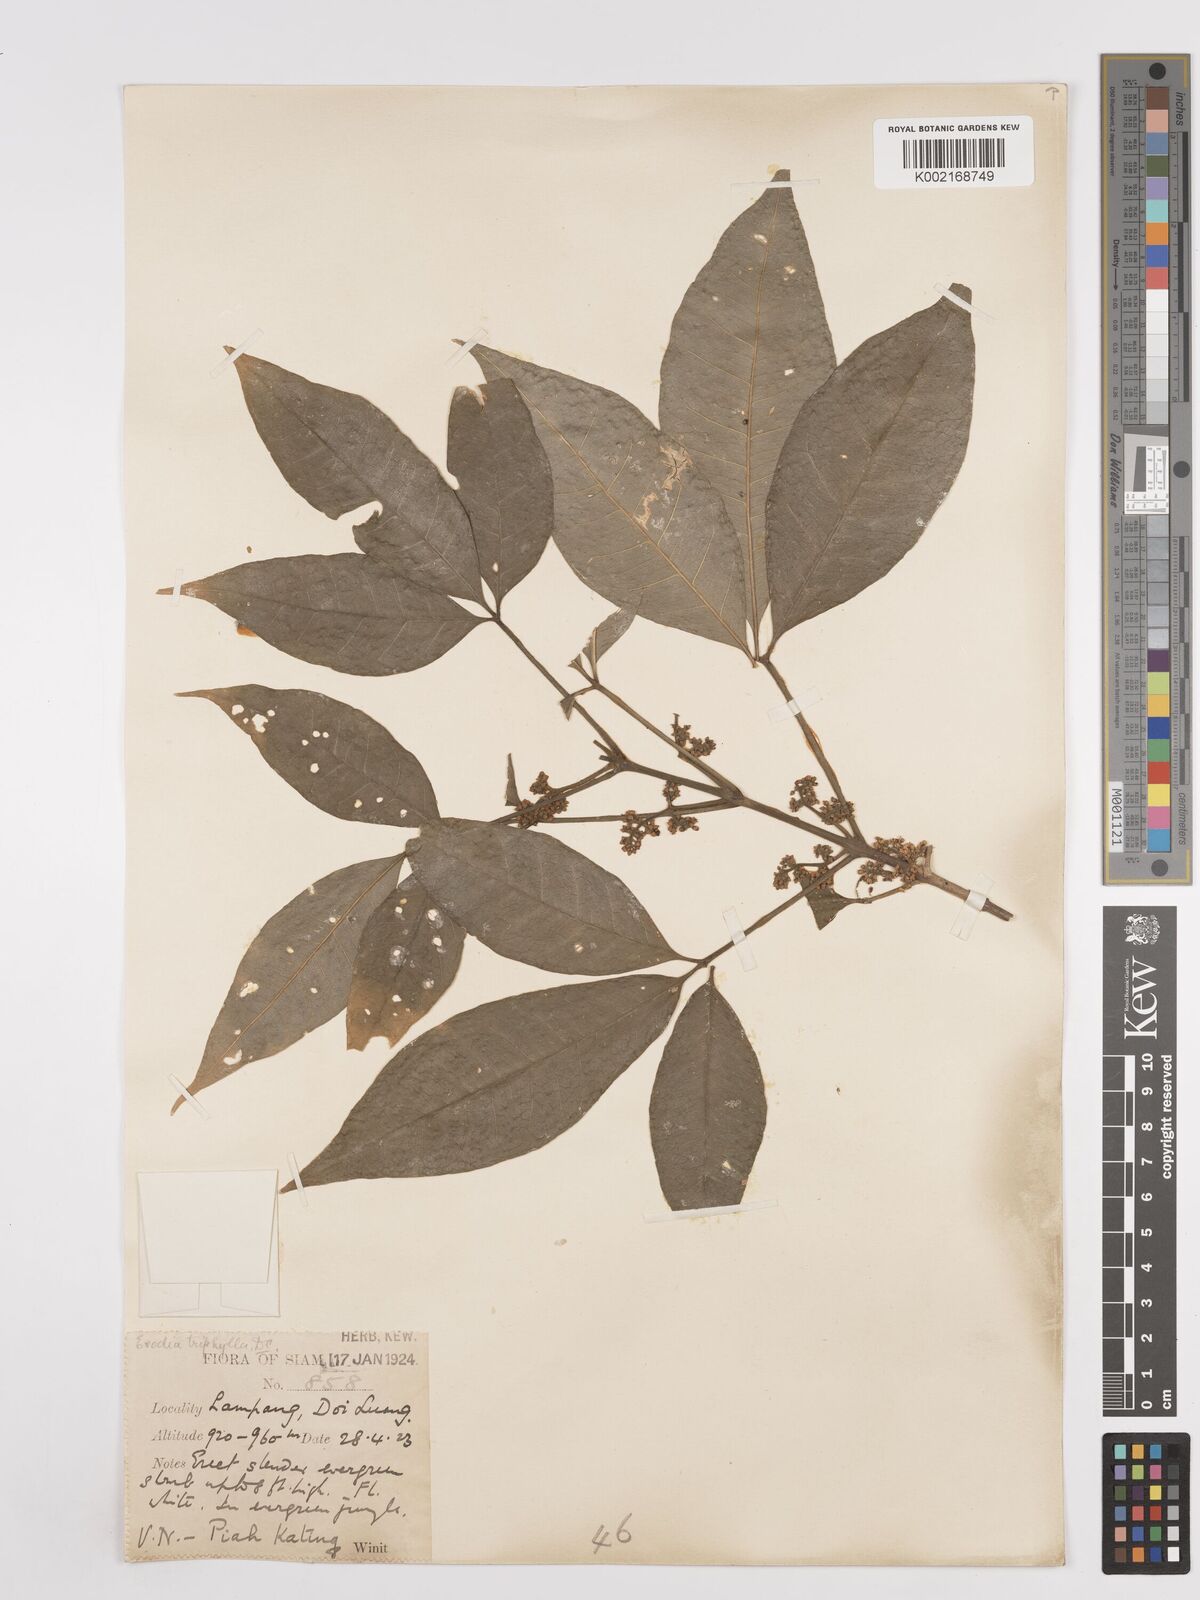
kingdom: Plantae
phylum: Tracheophyta
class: Magnoliopsida
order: Sapindales
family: Rutaceae
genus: Euodia
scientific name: Euodia
